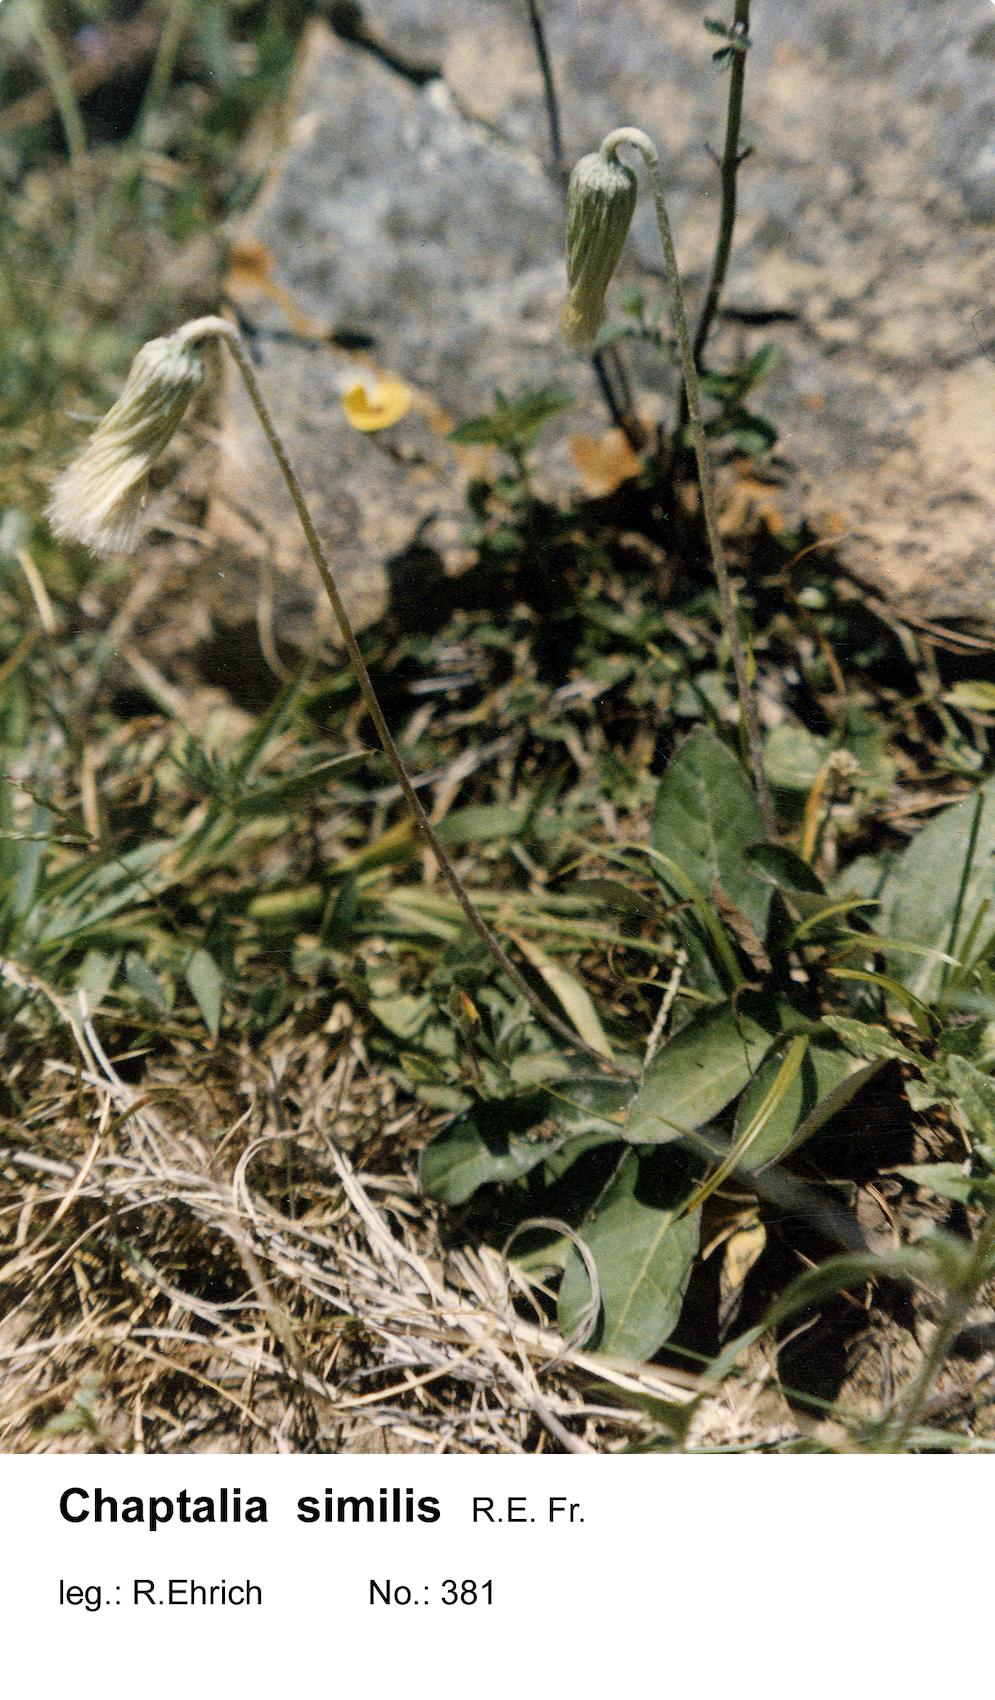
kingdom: Plantae
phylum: Tracheophyta
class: Magnoliopsida
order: Asterales
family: Asteraceae
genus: Chaptalia
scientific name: Chaptalia similis
